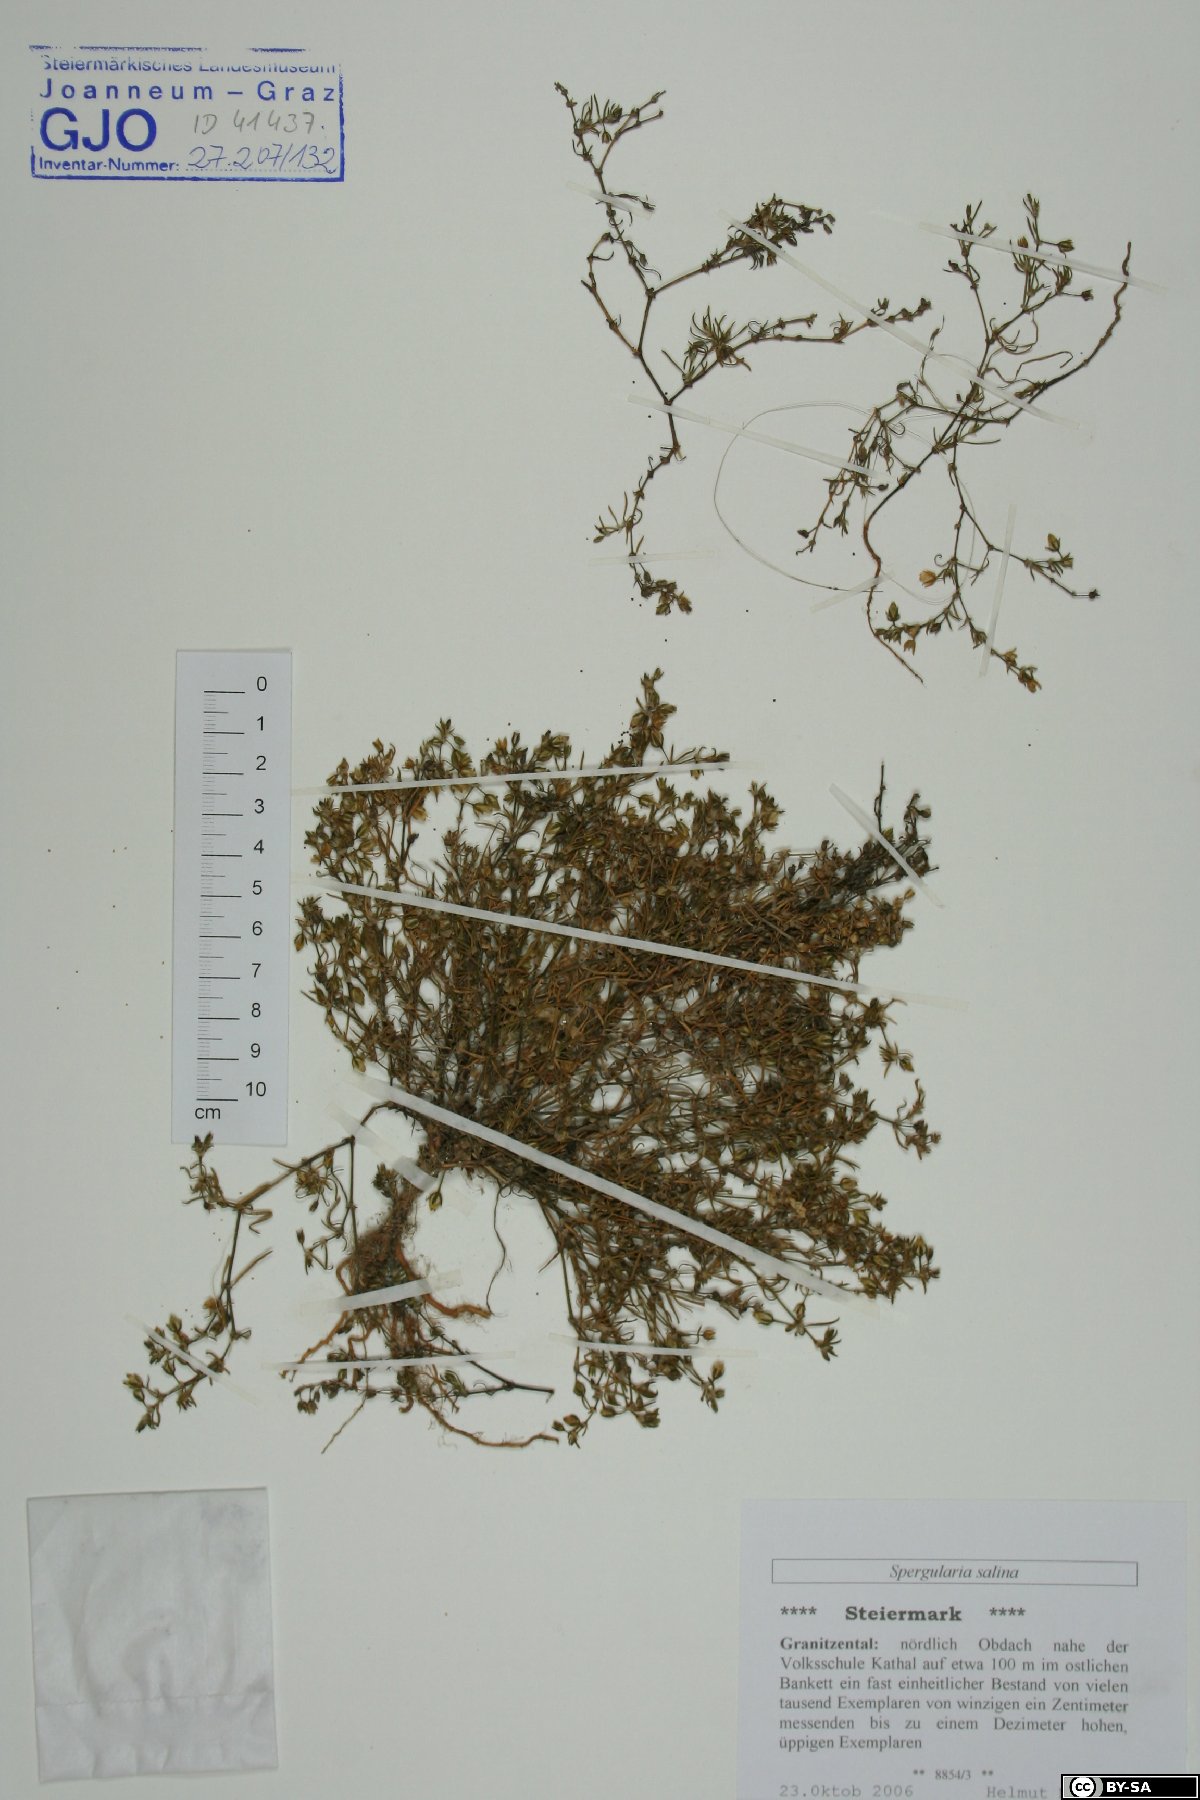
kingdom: Plantae
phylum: Tracheophyta
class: Magnoliopsida
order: Caryophyllales
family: Caryophyllaceae
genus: Spergularia
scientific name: Spergularia marina
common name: Lesser sea-spurrey
